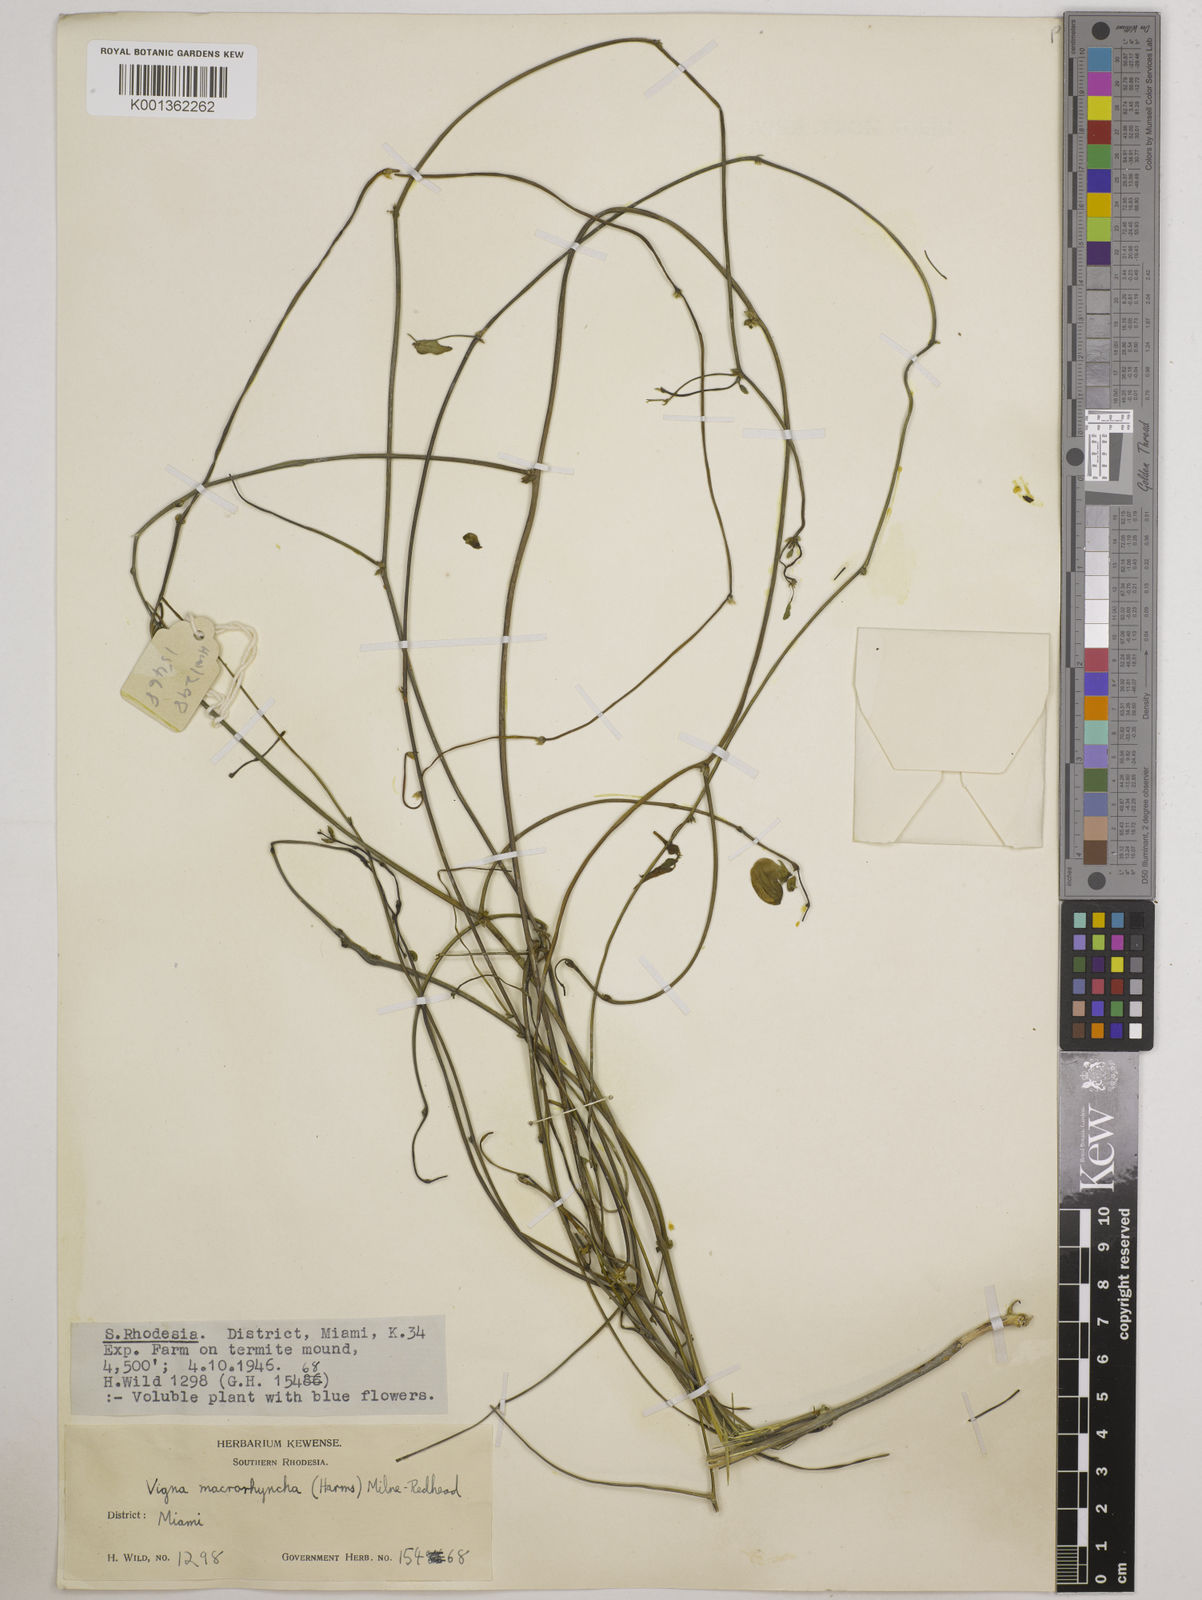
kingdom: Plantae
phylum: Tracheophyta
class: Magnoliopsida
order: Fabales
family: Fabaceae
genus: Wajira
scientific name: Wajira grahamiana
